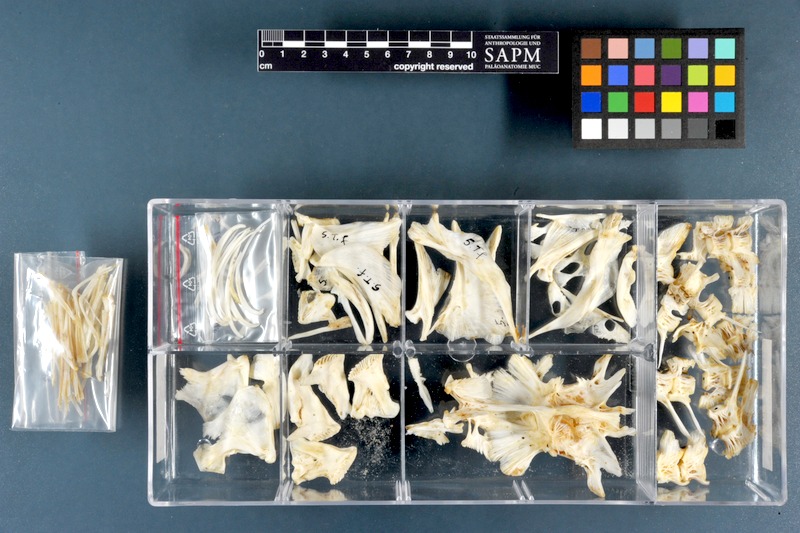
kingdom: Animalia
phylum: Chordata
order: Tetraodontiformes
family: Tetraodontidae
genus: Tetraodon
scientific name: Tetraodon lineatus
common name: Coral butterfly
